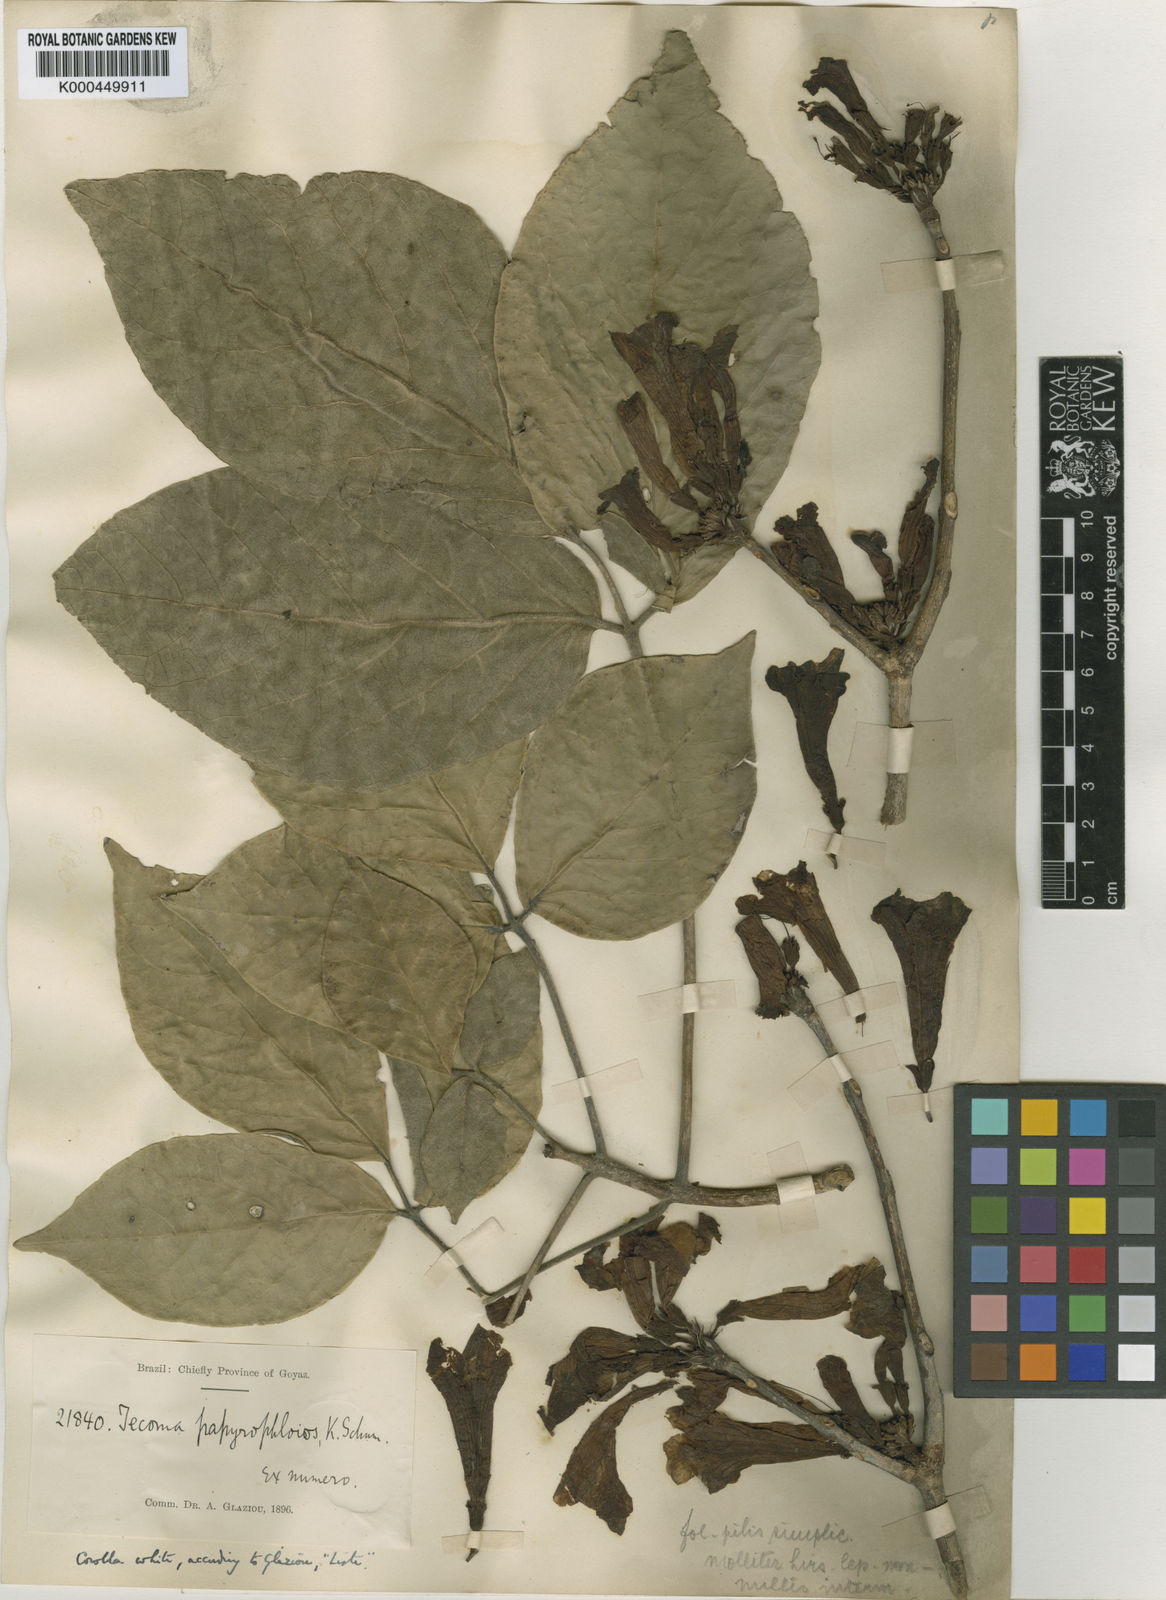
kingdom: Plantae
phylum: Tracheophyta
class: Magnoliopsida
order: Lamiales
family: Bignoniaceae
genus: Tabebuia
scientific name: Tabebuia roseoalba
